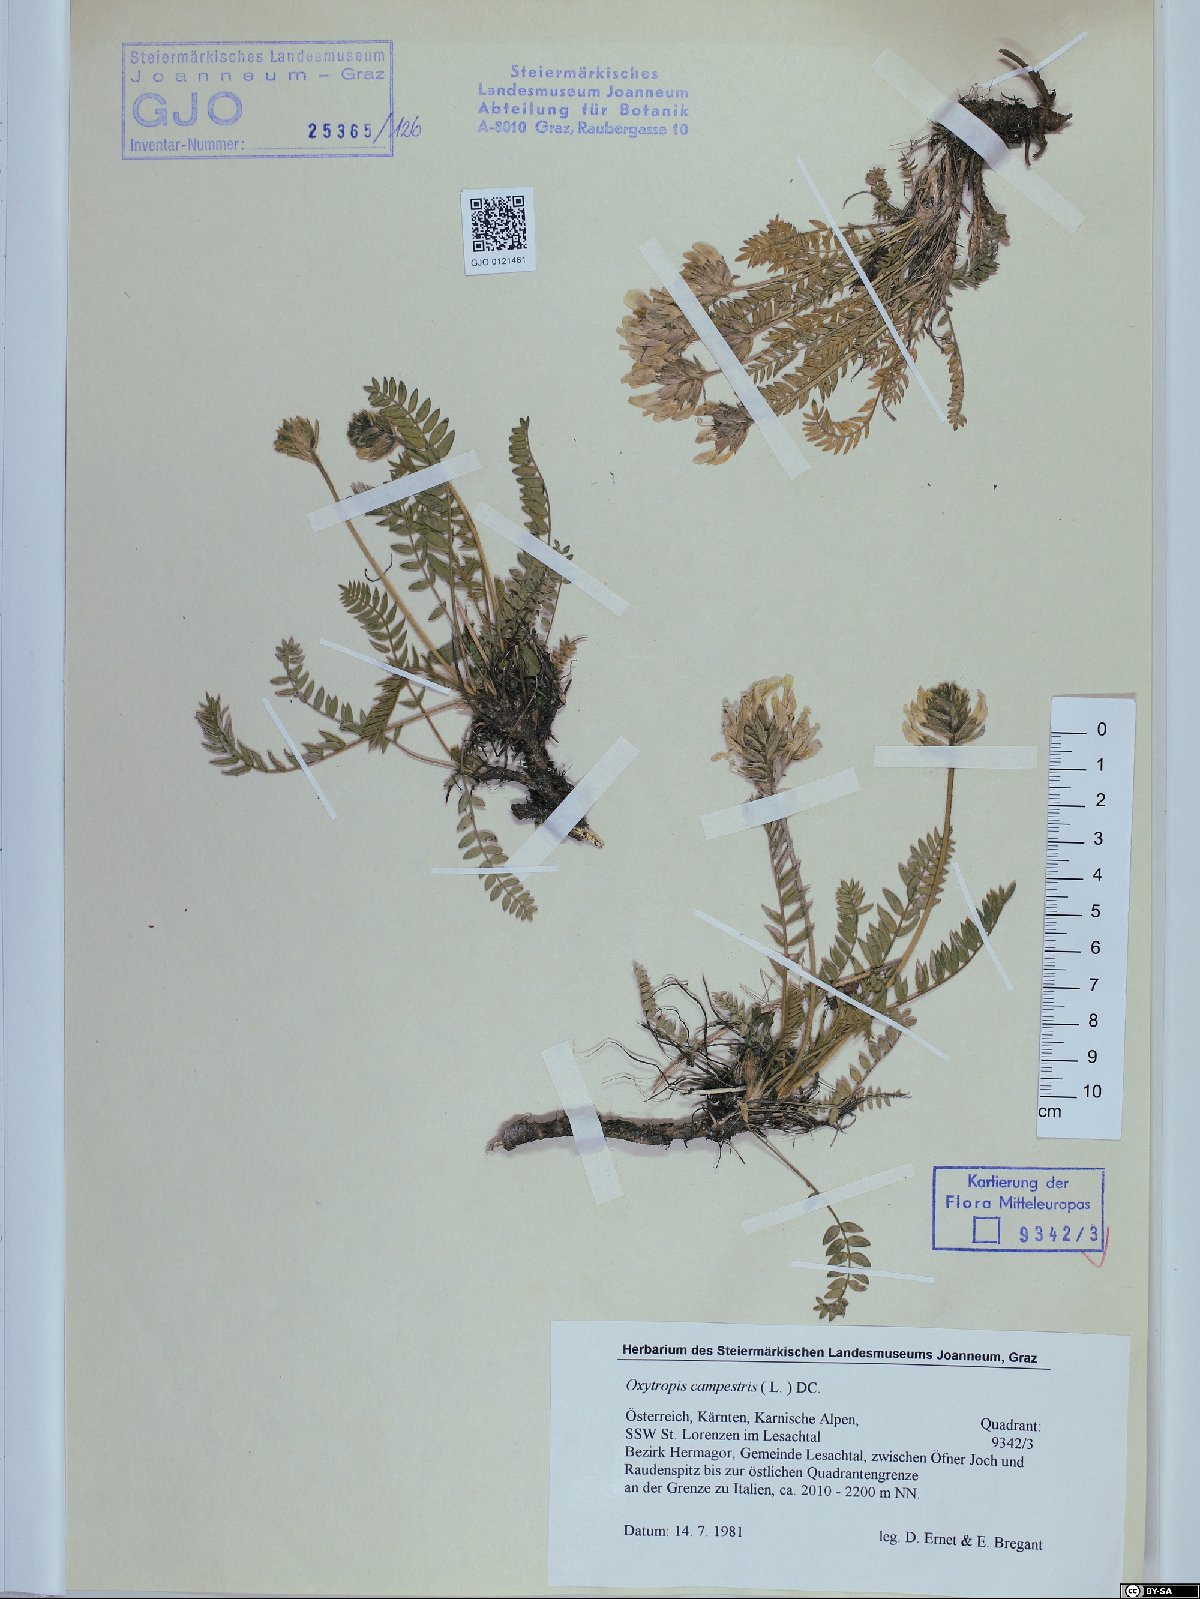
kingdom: Plantae
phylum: Tracheophyta
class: Magnoliopsida
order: Fabales
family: Fabaceae
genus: Oxytropis
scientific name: Oxytropis campestris
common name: Field locoweed
